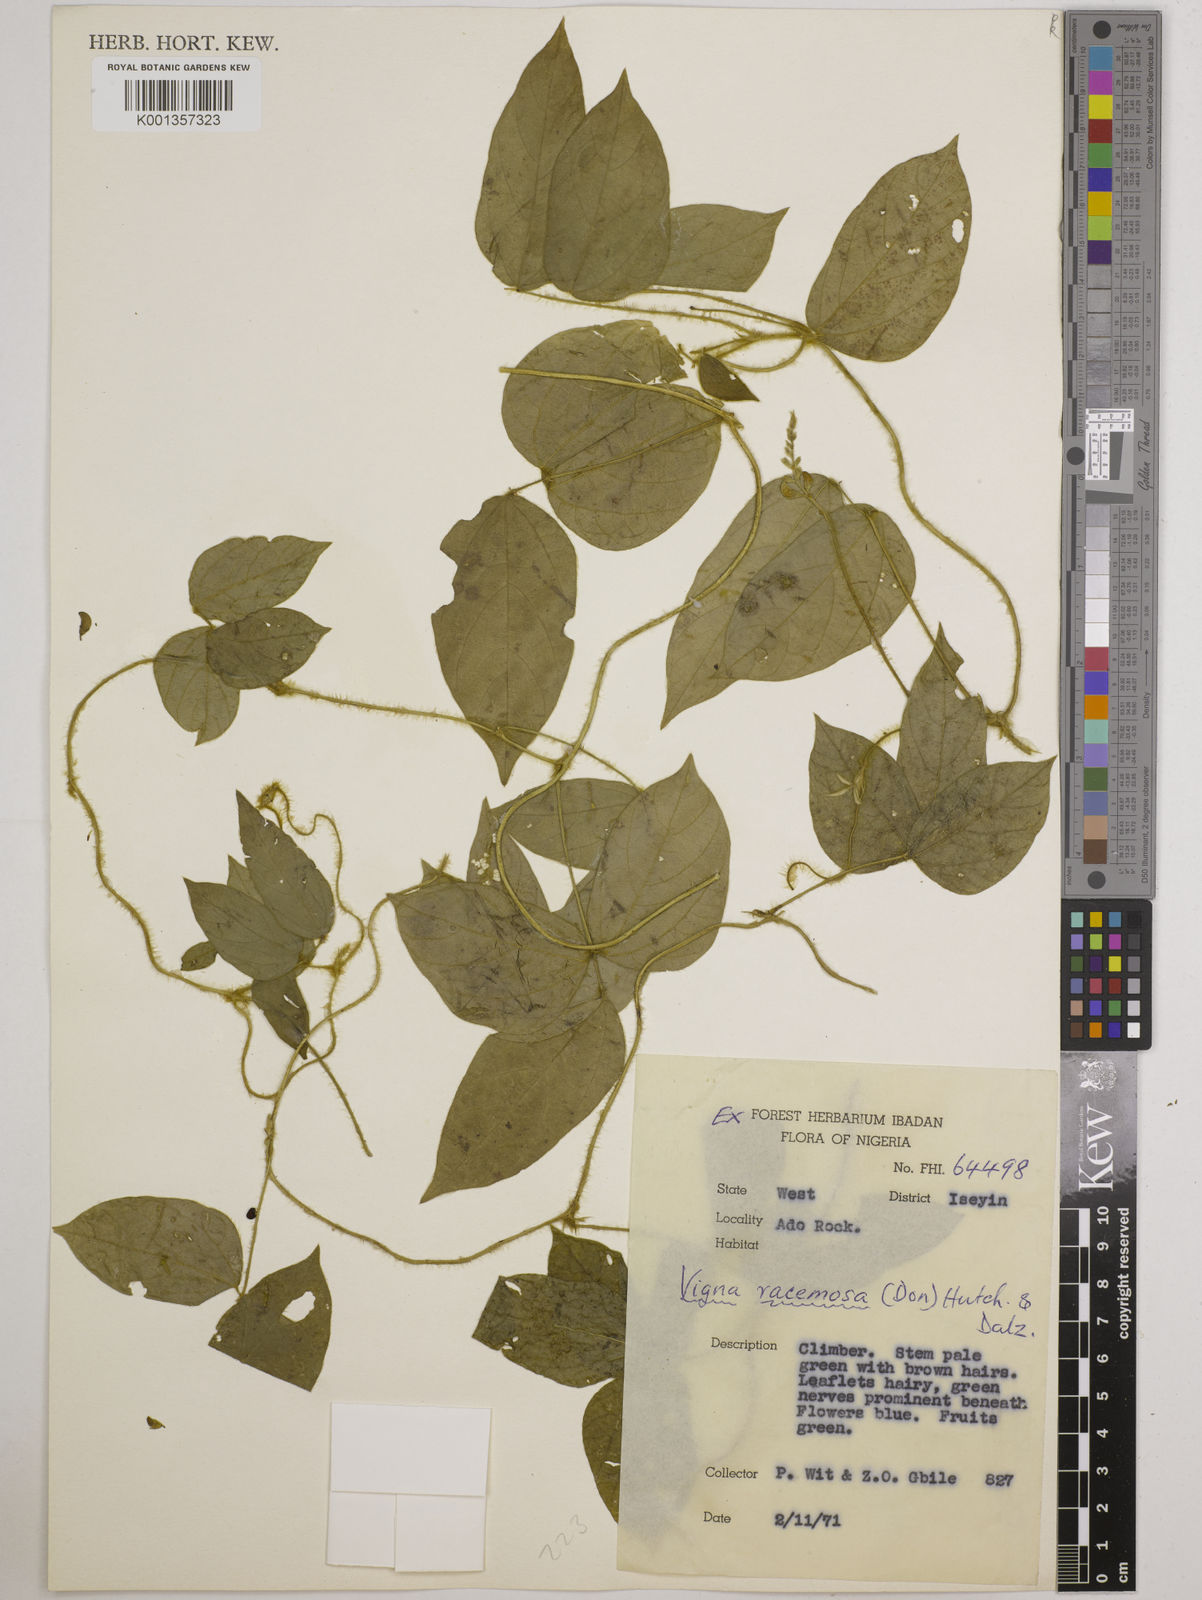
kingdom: Plantae
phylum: Tracheophyta
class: Magnoliopsida
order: Fabales
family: Fabaceae
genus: Vigna
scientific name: Vigna racemosa
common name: Beans not eaten
